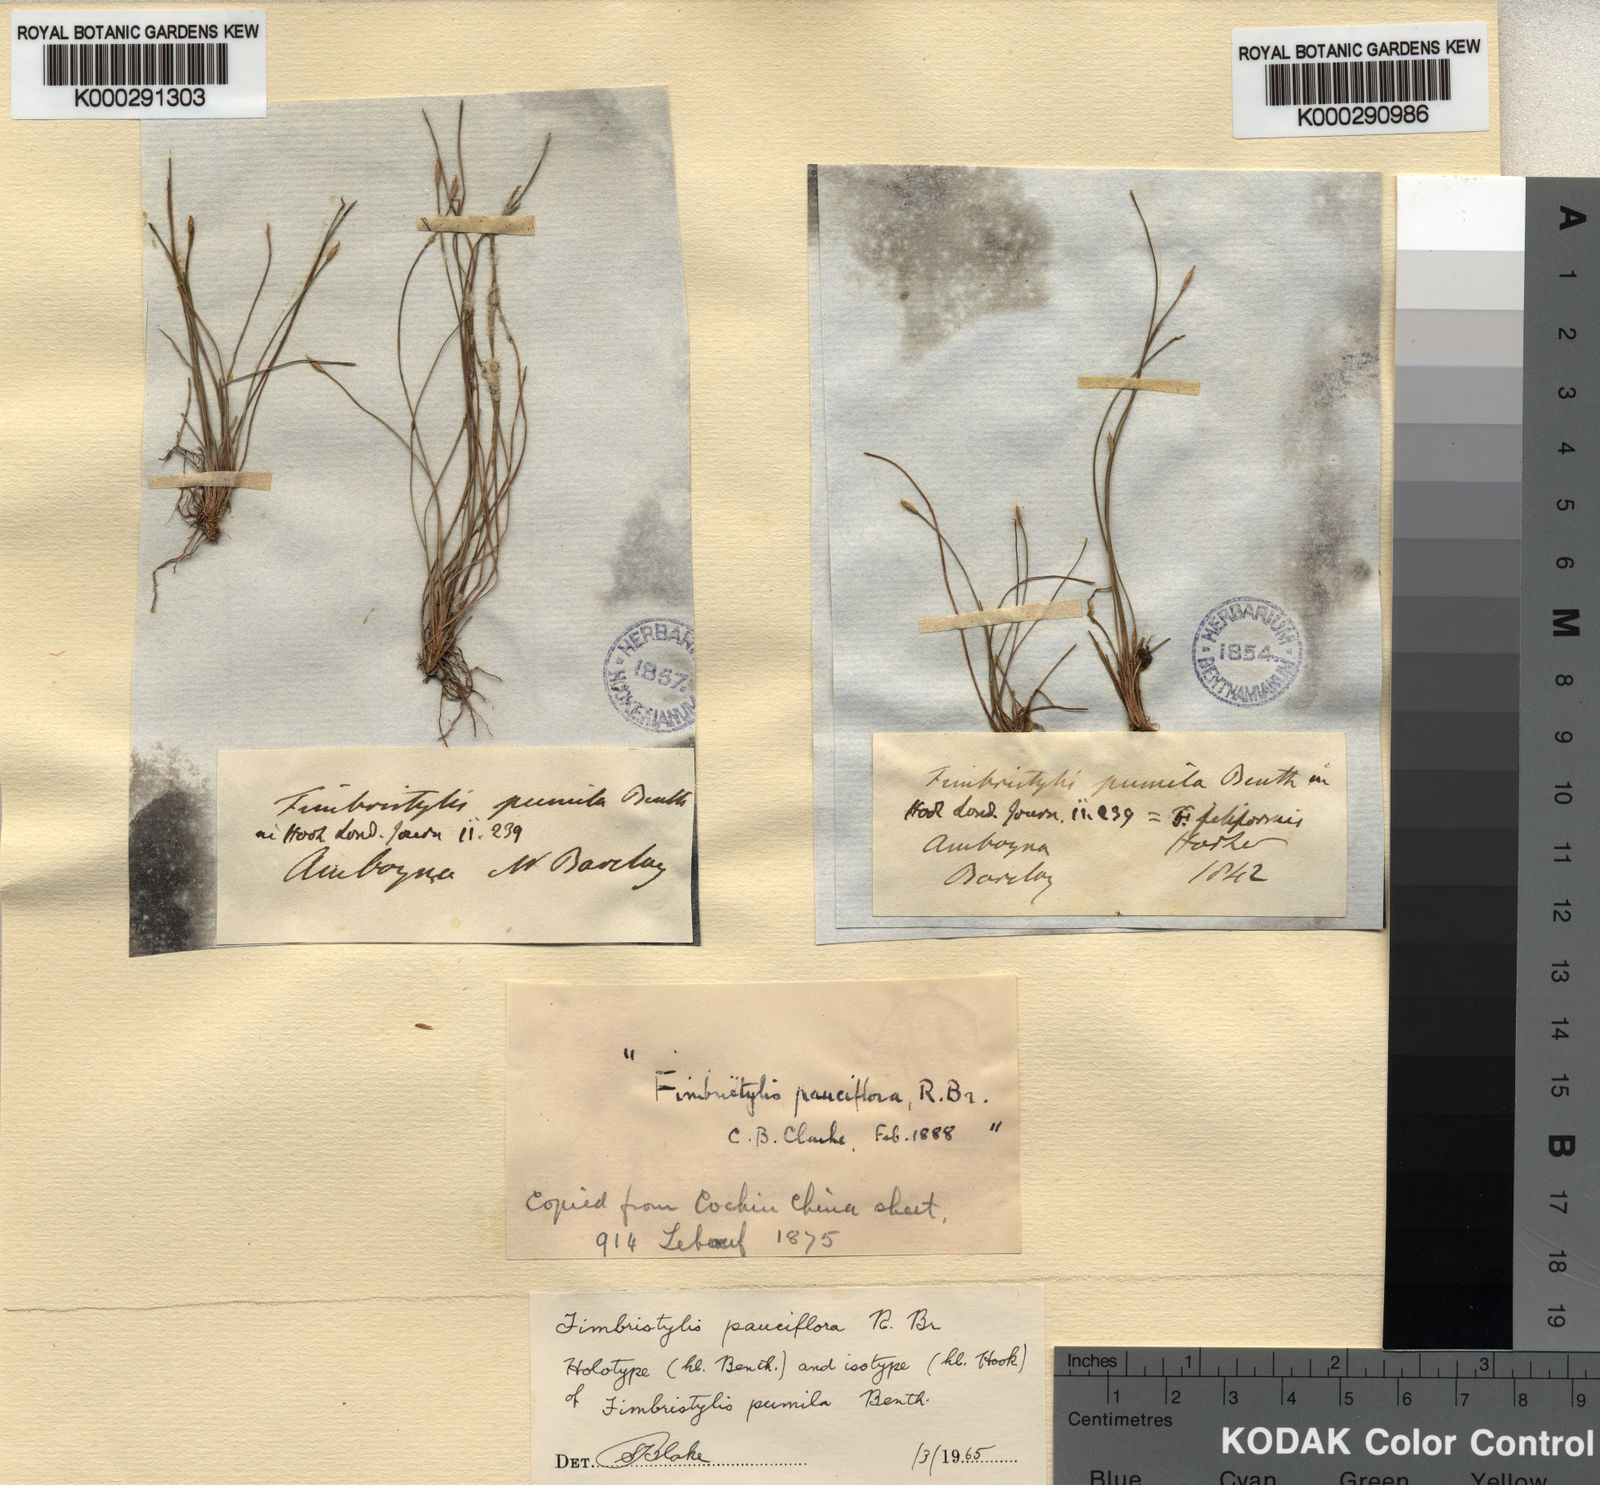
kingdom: Plantae
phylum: Tracheophyta
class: Liliopsida
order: Poales
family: Cyperaceae
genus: Fimbristylis
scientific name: Fimbristylis pauciflora
